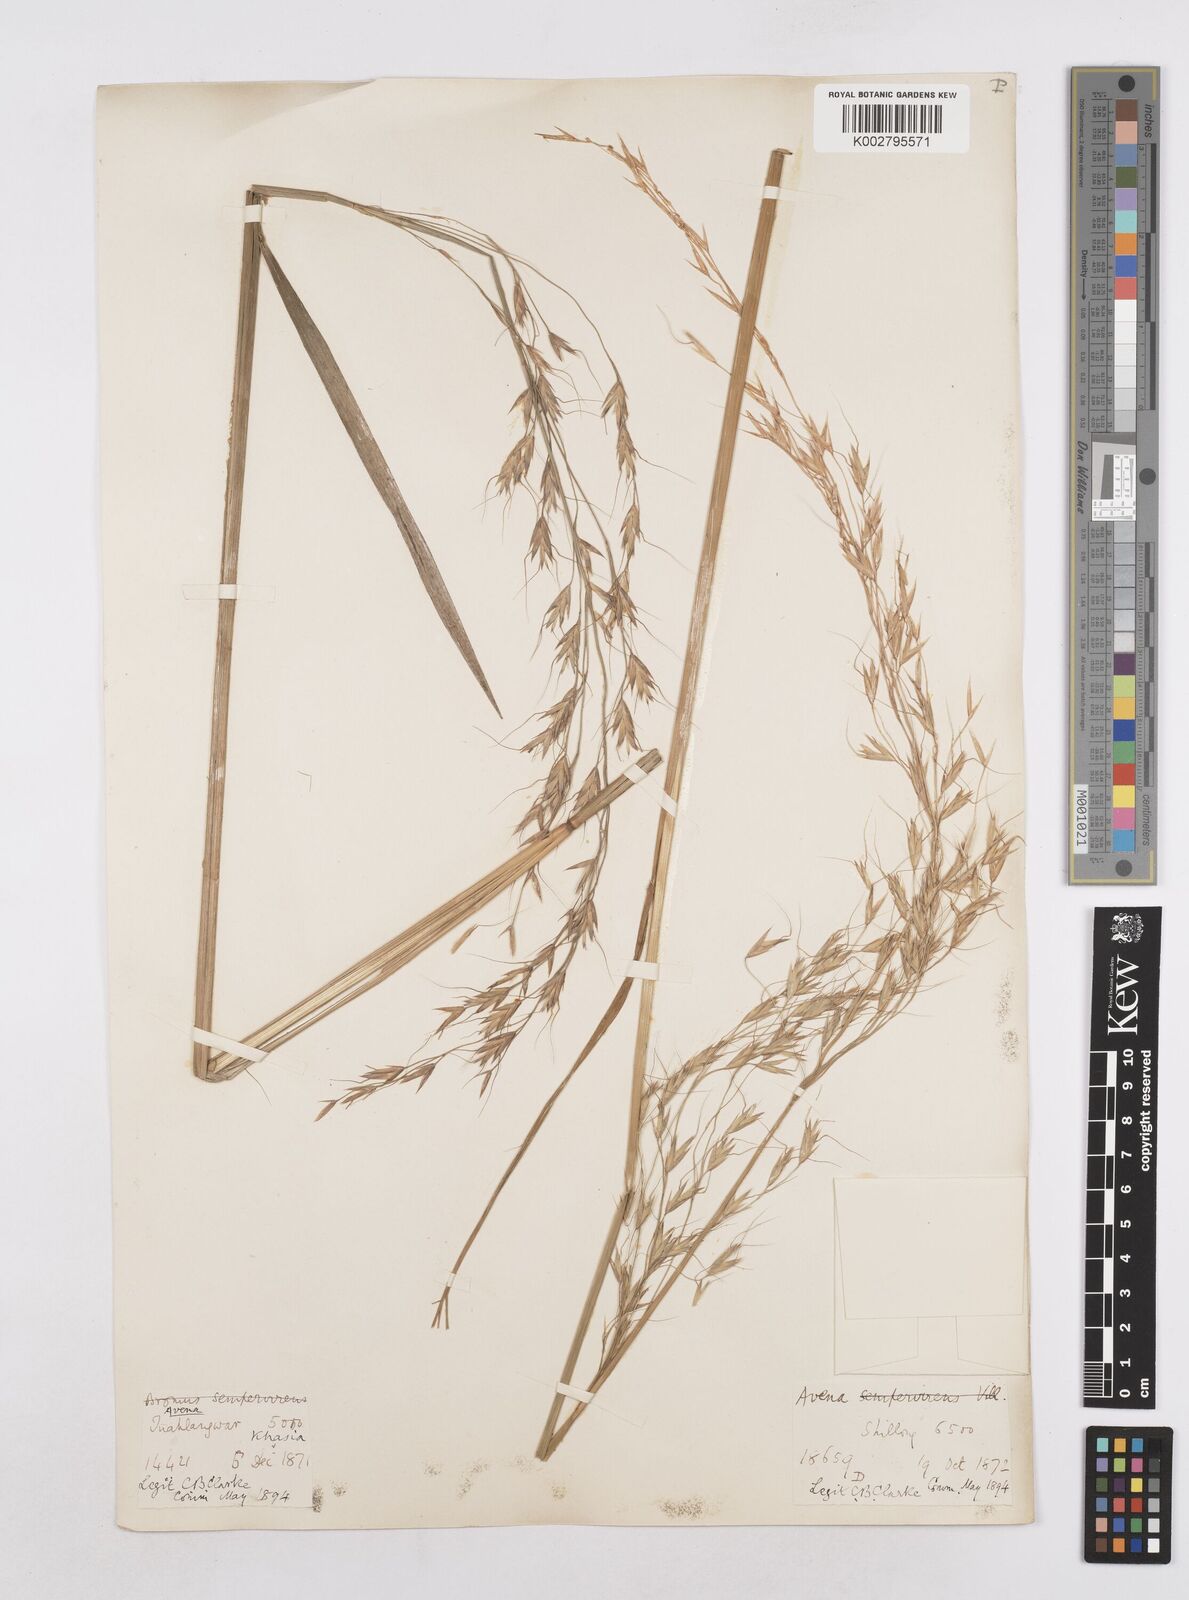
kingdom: Plantae
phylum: Tracheophyta
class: Liliopsida
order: Poales
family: Poaceae
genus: Trisetopsis
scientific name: Trisetopsis junghuhnii
